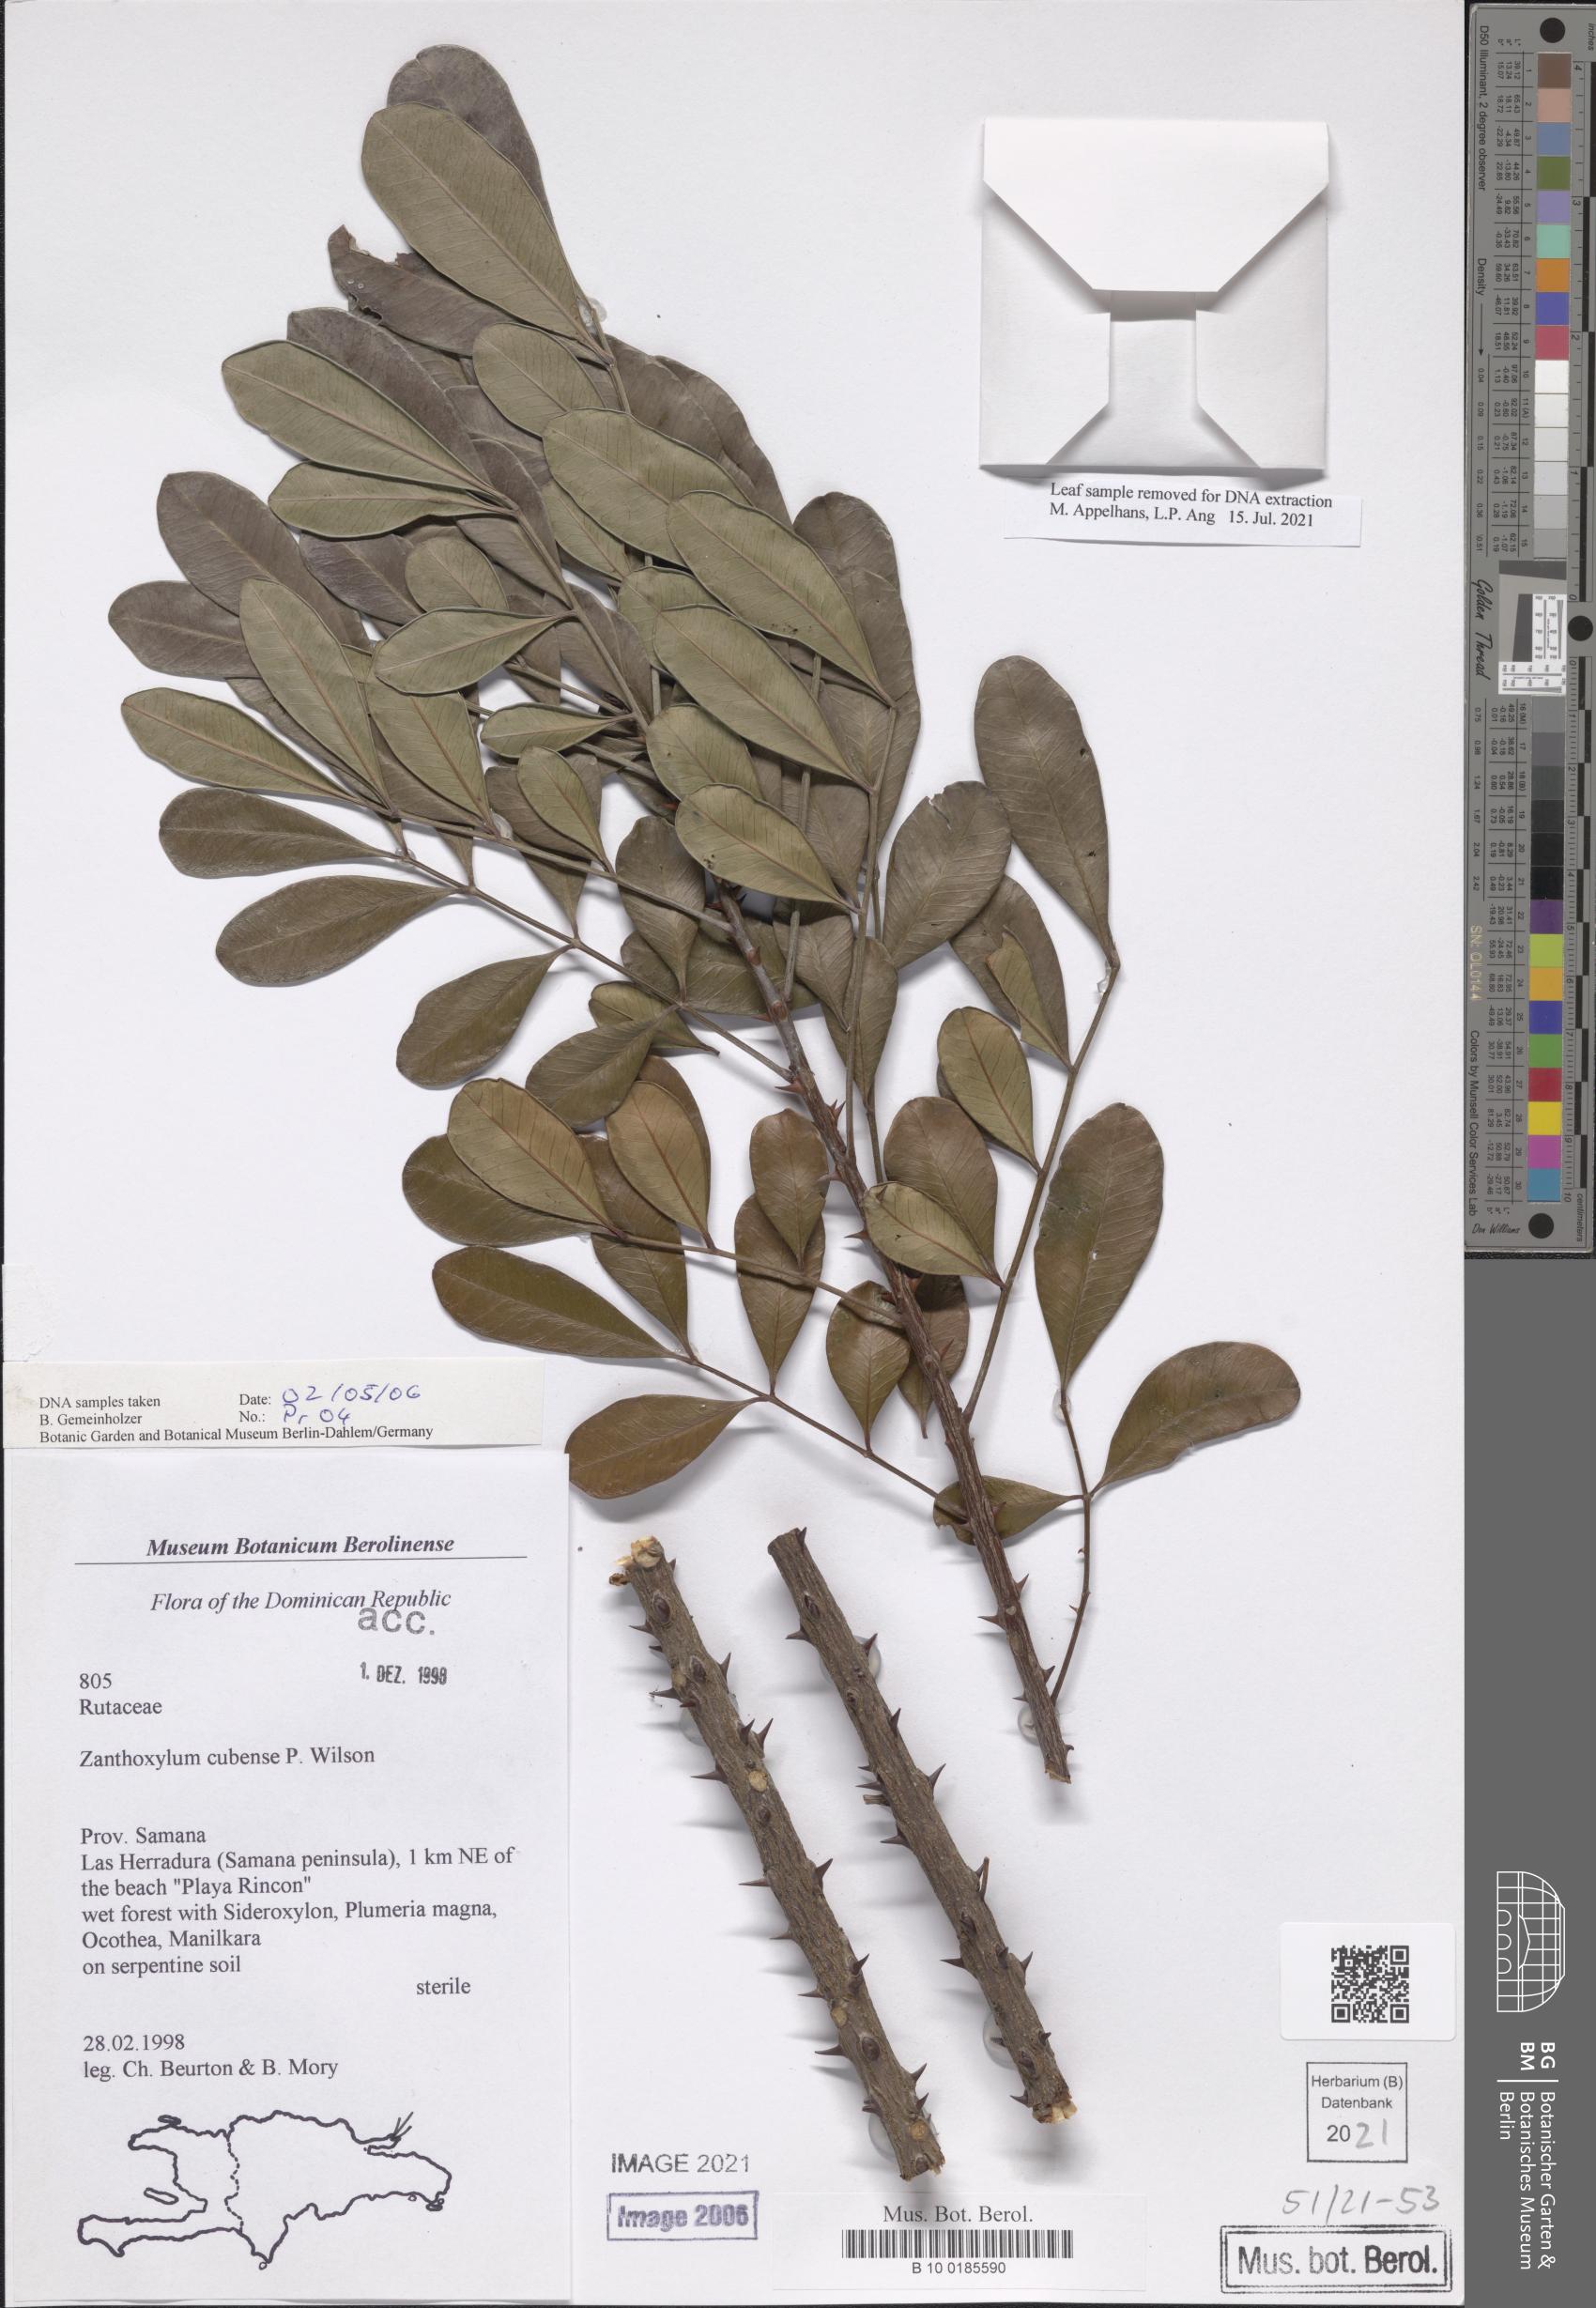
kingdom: Plantae
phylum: Tracheophyta
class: Magnoliopsida
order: Sapindales
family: Rutaceae
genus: Zanthoxylum
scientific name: Zanthoxylum rhodoxylon
